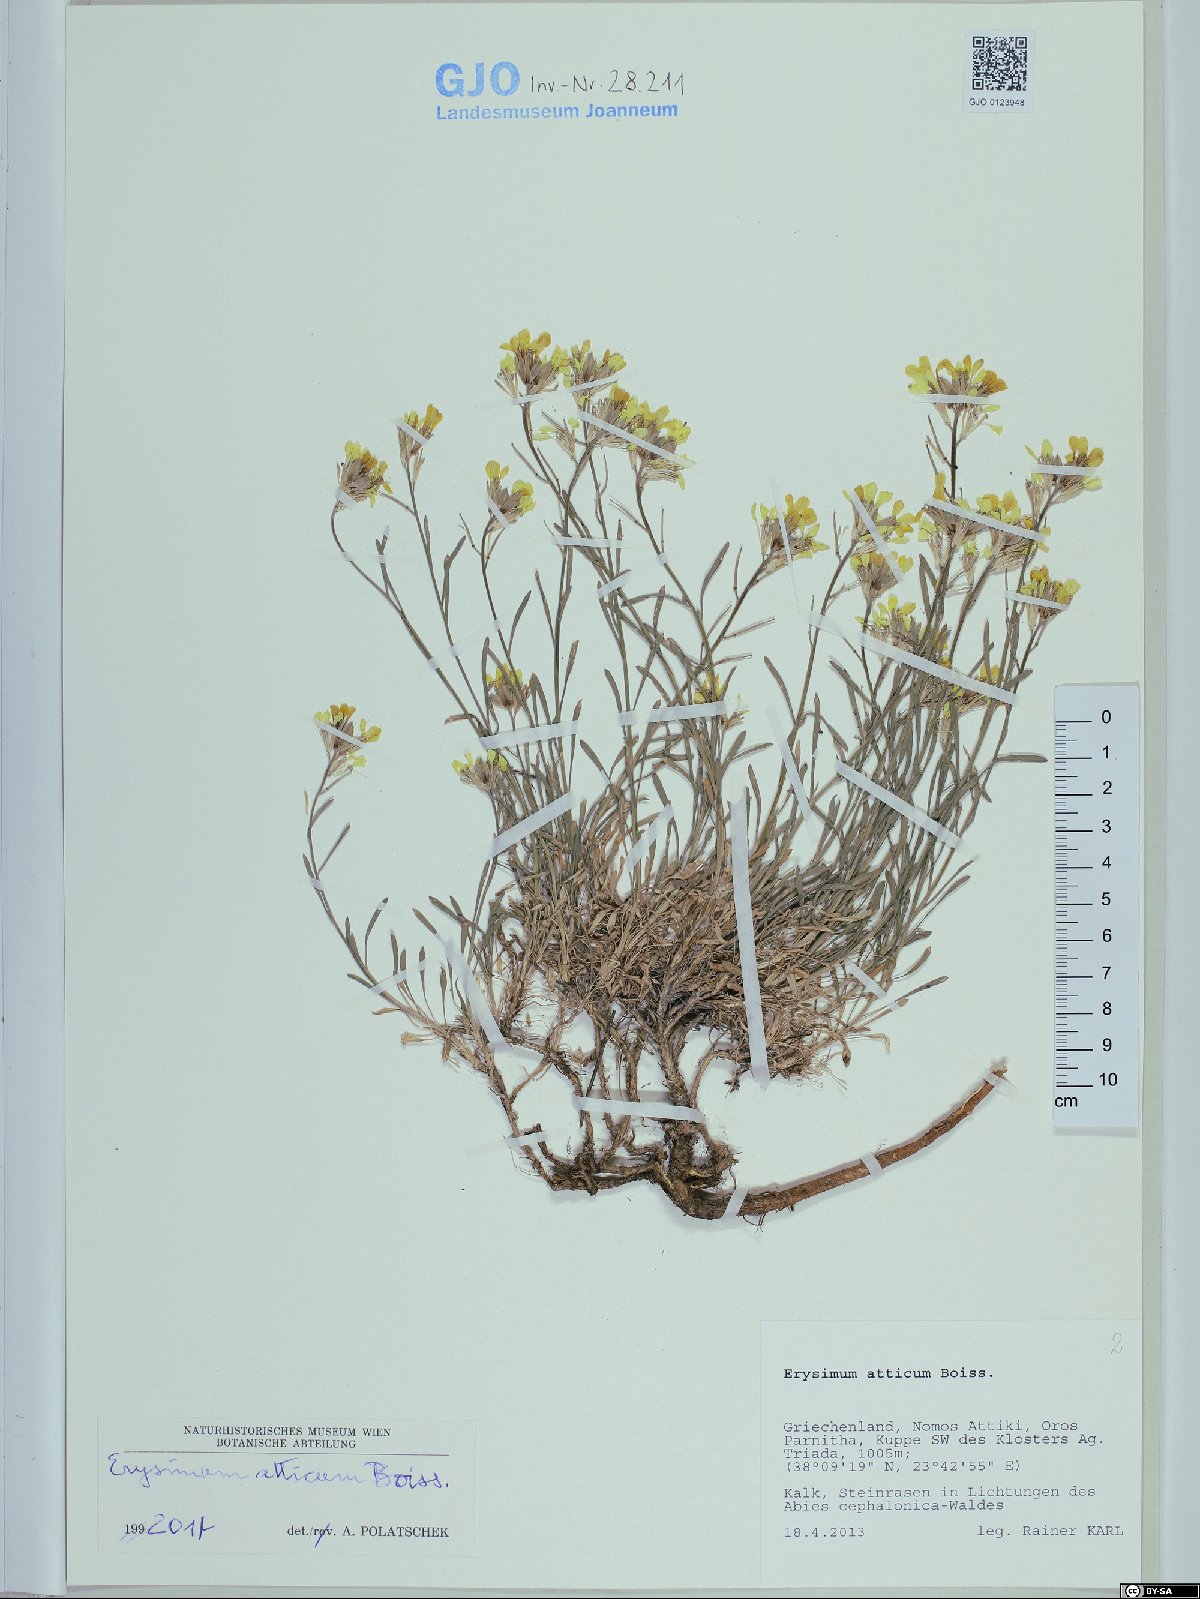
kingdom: Plantae
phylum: Tracheophyta
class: Magnoliopsida
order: Brassicales
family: Brassicaceae
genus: Erysimum
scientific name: Erysimum atticum
